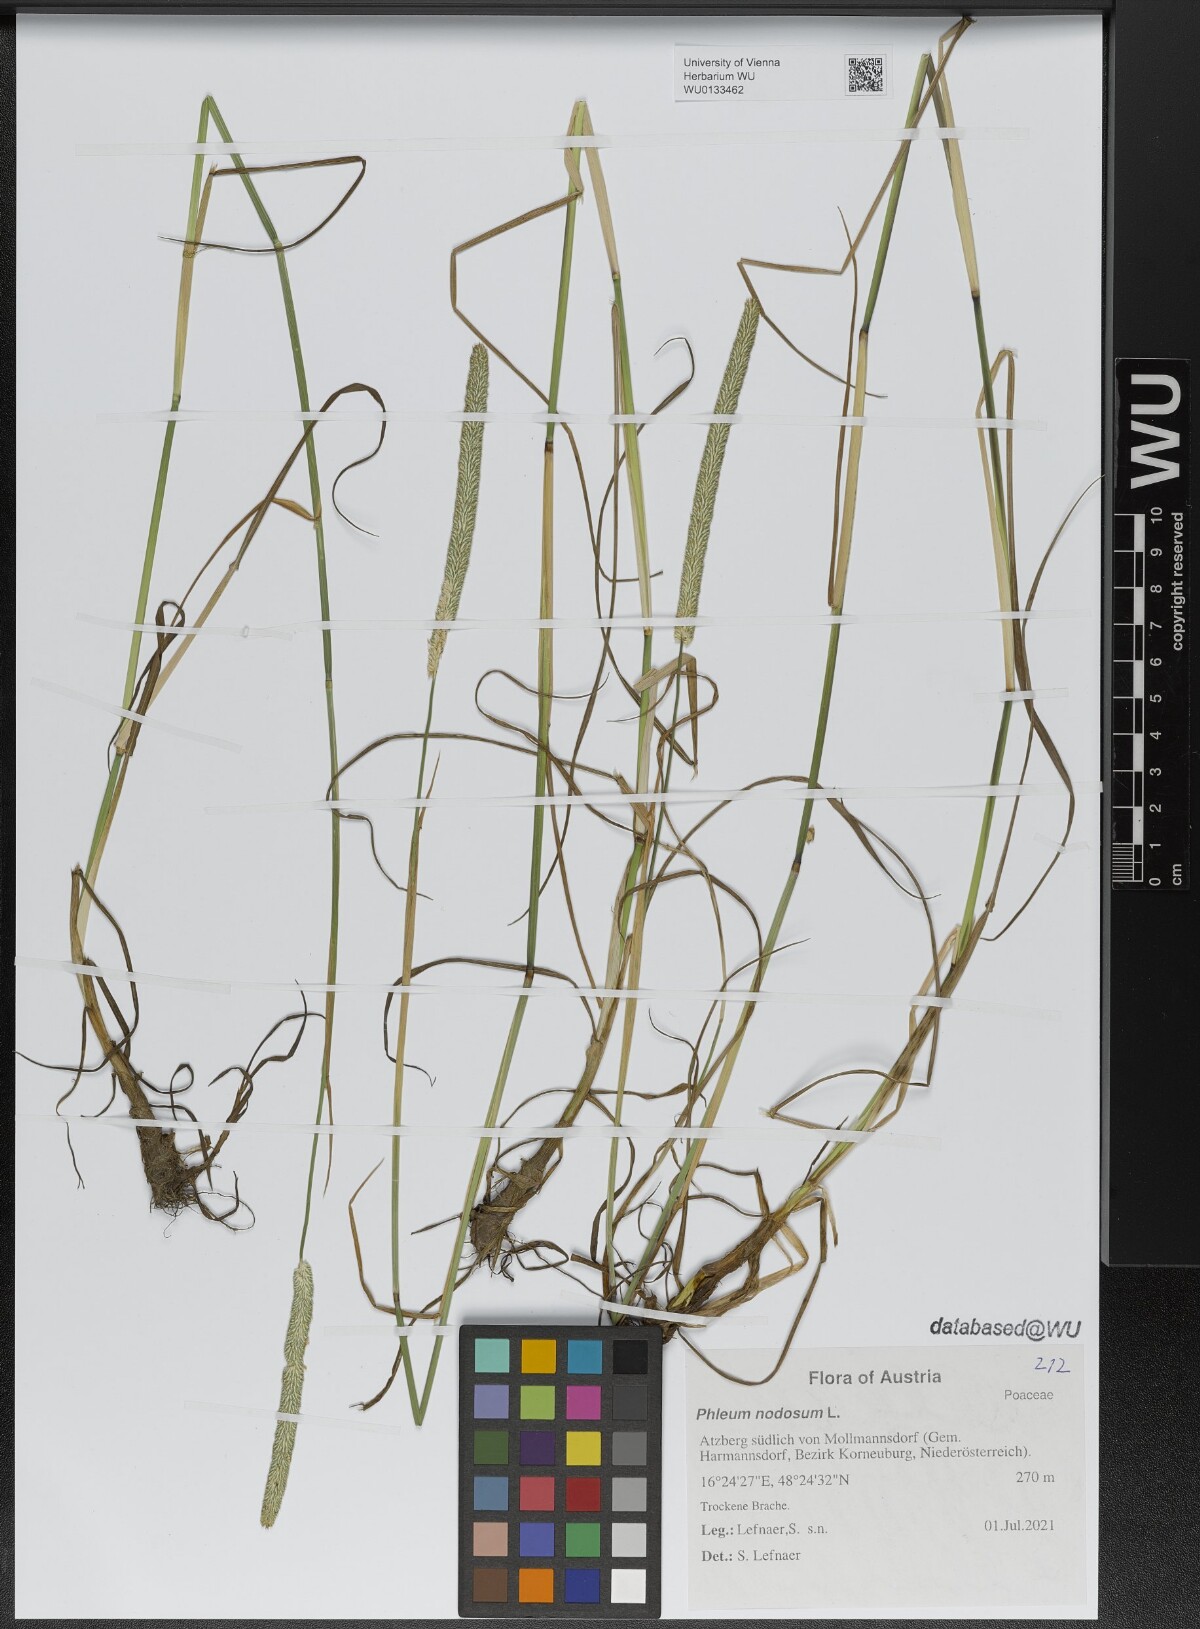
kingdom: Plantae
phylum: Tracheophyta
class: Liliopsida
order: Poales
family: Poaceae
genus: Phleum
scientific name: Phleum pratense
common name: Timothy grass
